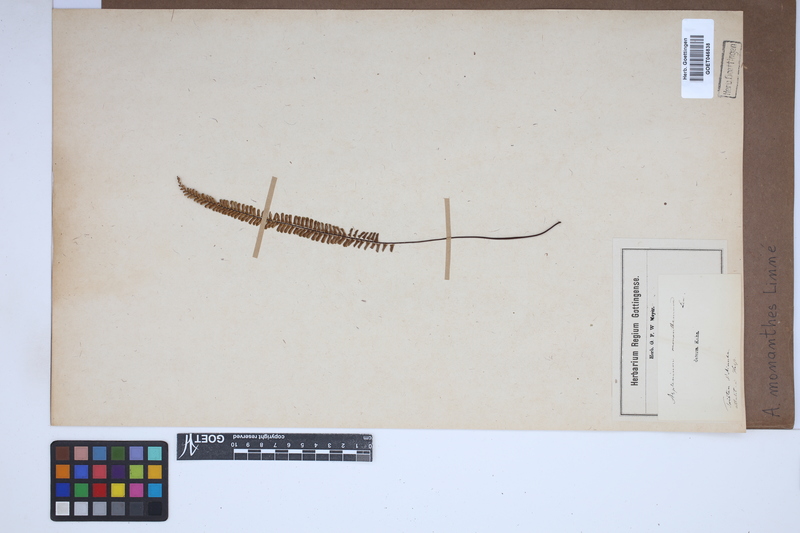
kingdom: Plantae
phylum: Tracheophyta
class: Polypodiopsida
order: Polypodiales
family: Aspleniaceae
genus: Asplenium
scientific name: Asplenium monanthes
